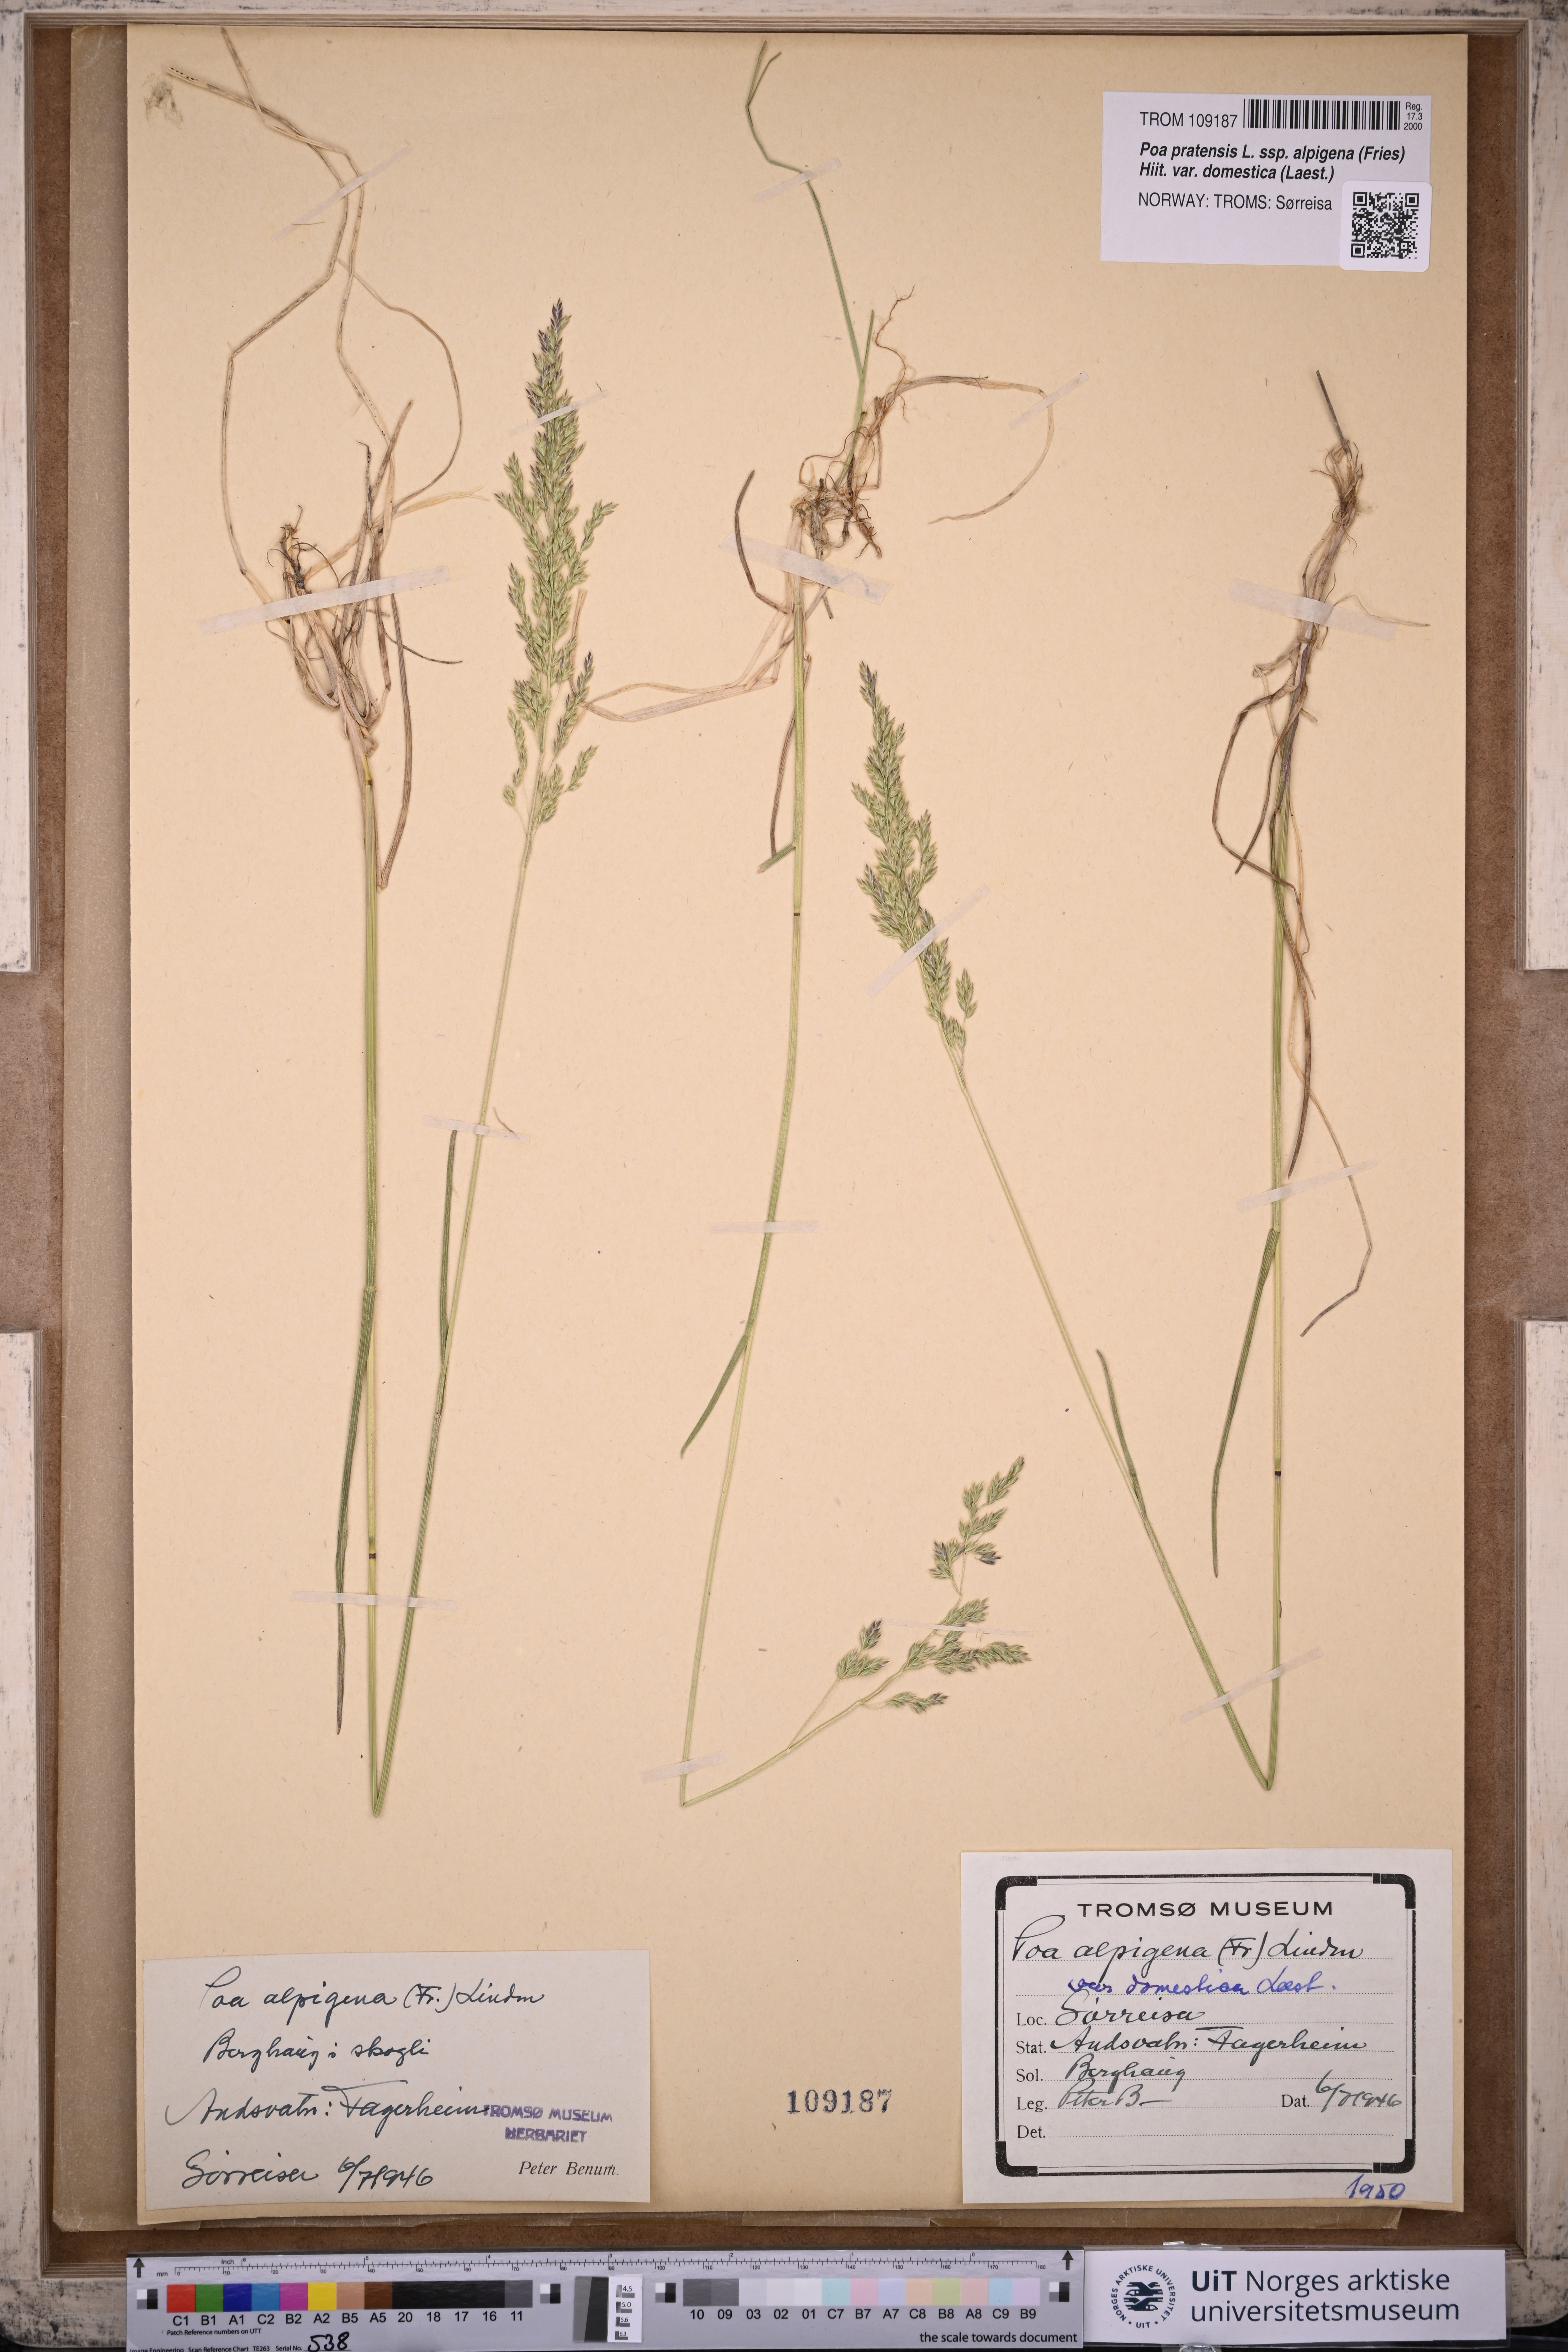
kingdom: Plantae
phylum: Tracheophyta
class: Liliopsida
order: Poales
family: Poaceae
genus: Poa
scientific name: Poa pratensis
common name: Kentucky bluegrass
